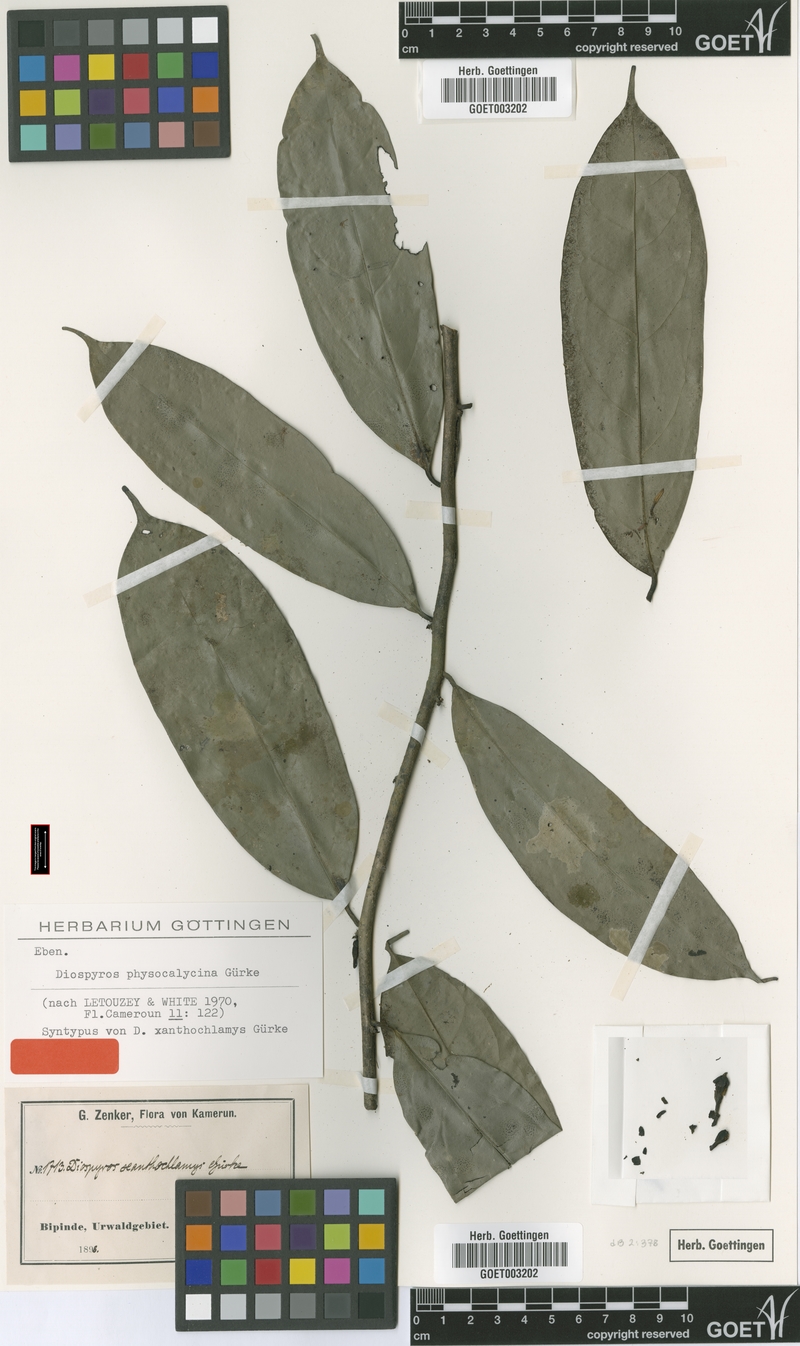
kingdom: Plantae
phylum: Tracheophyta
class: Magnoliopsida
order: Ericales
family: Ebenaceae
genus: Diospyros
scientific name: Diospyros physocalycina
